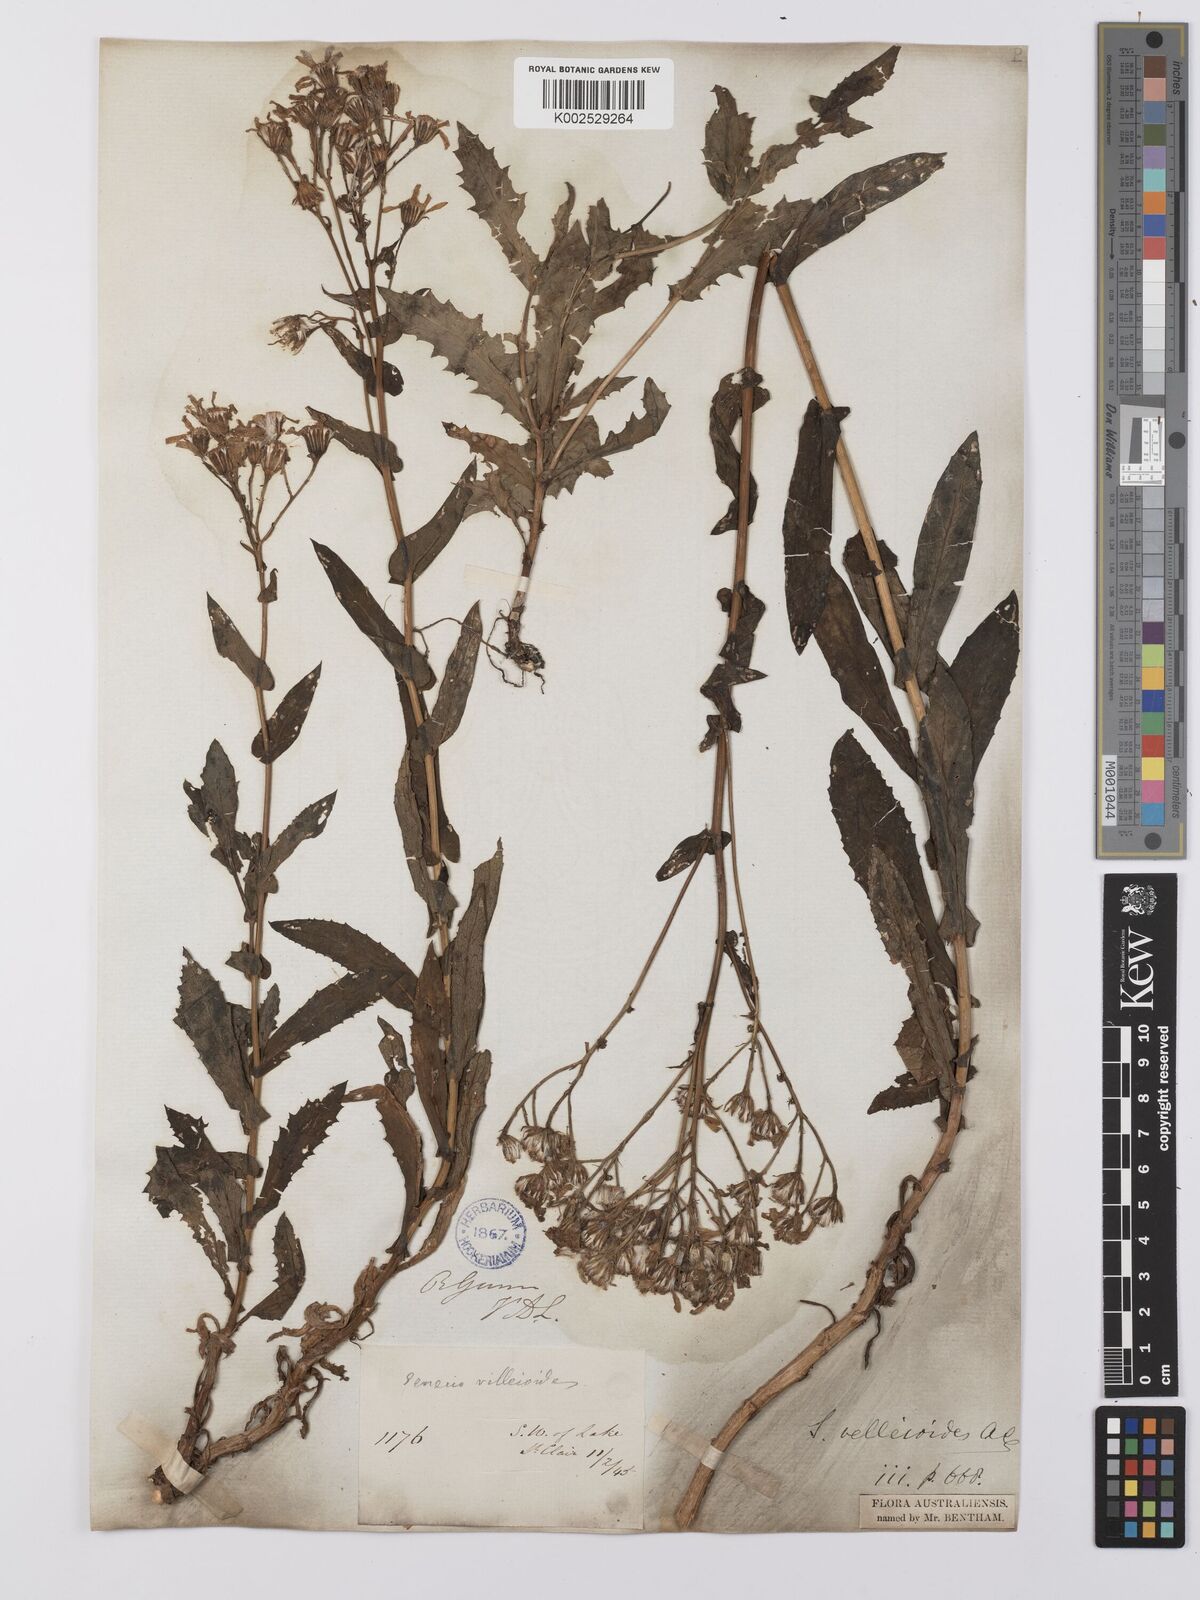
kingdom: Plantae
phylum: Tracheophyta
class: Magnoliopsida
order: Asterales
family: Asteraceae
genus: Lordhowea
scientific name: Lordhowea velleioides
